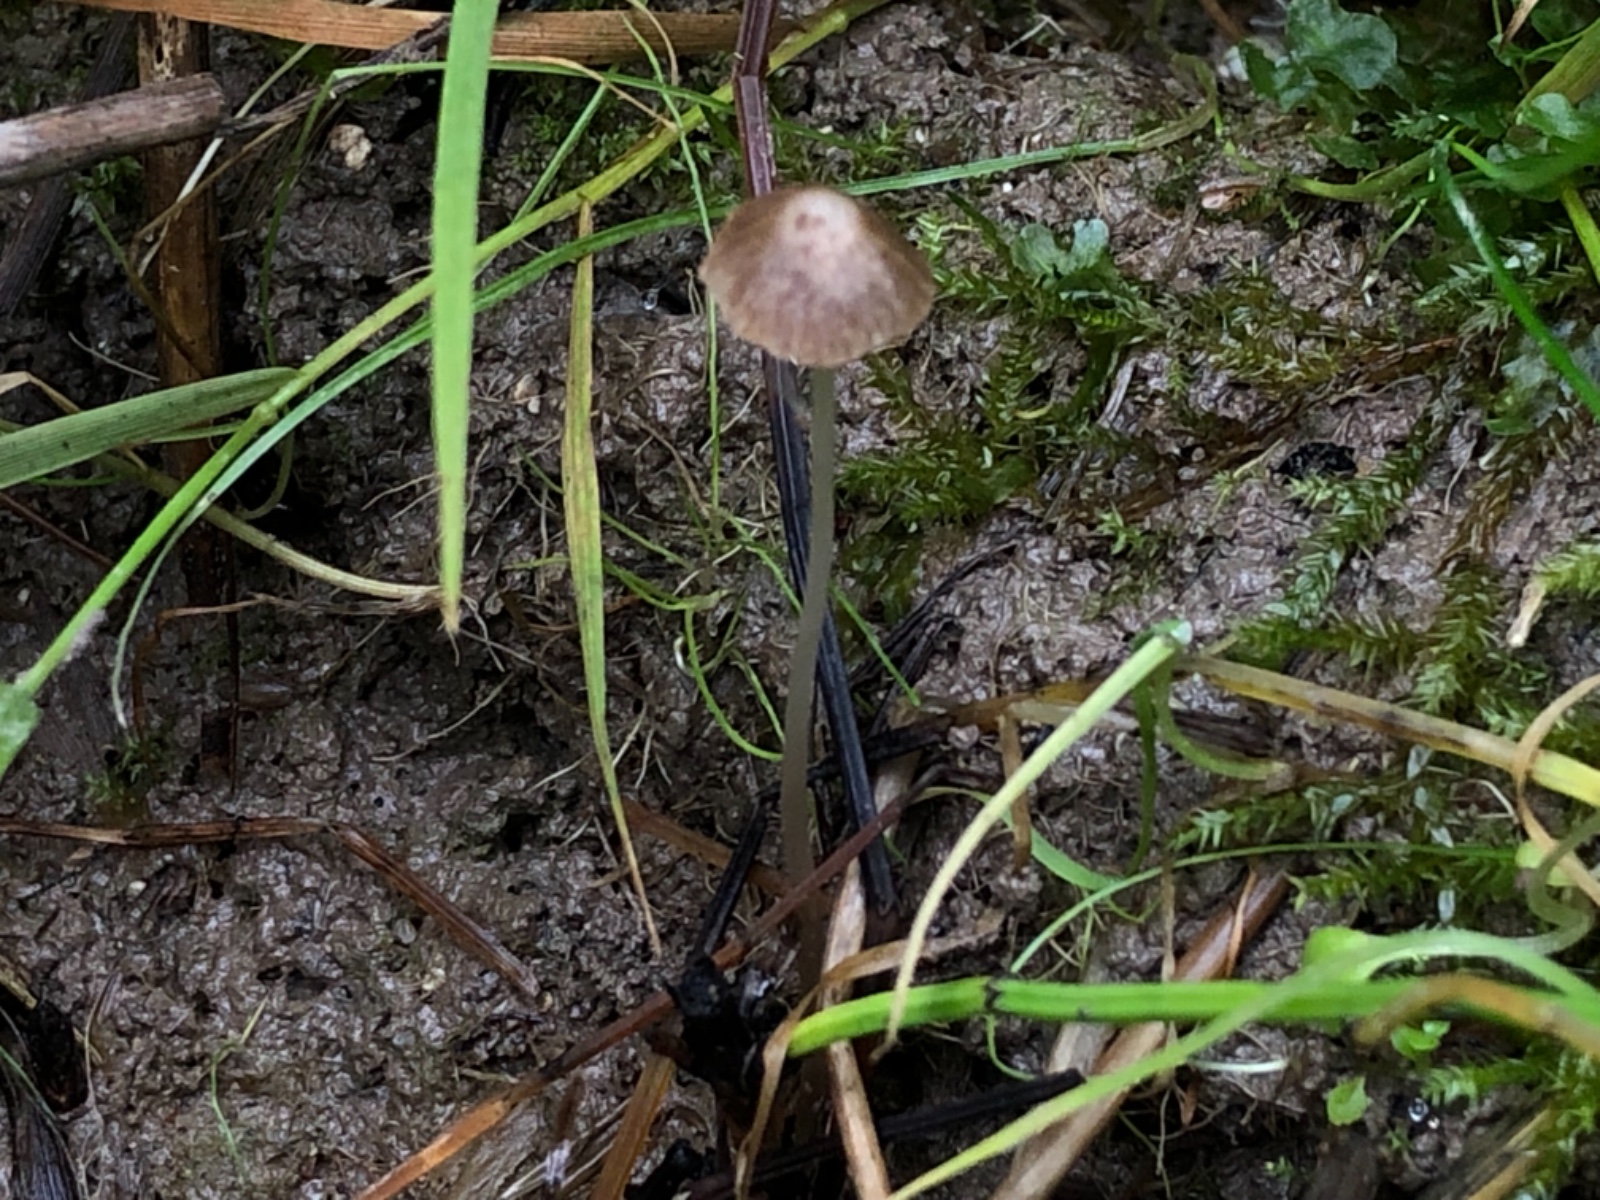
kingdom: Fungi
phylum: Basidiomycota
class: Agaricomycetes
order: Agaricales
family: Psathyrellaceae
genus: Psathyrella
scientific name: Psathyrella
